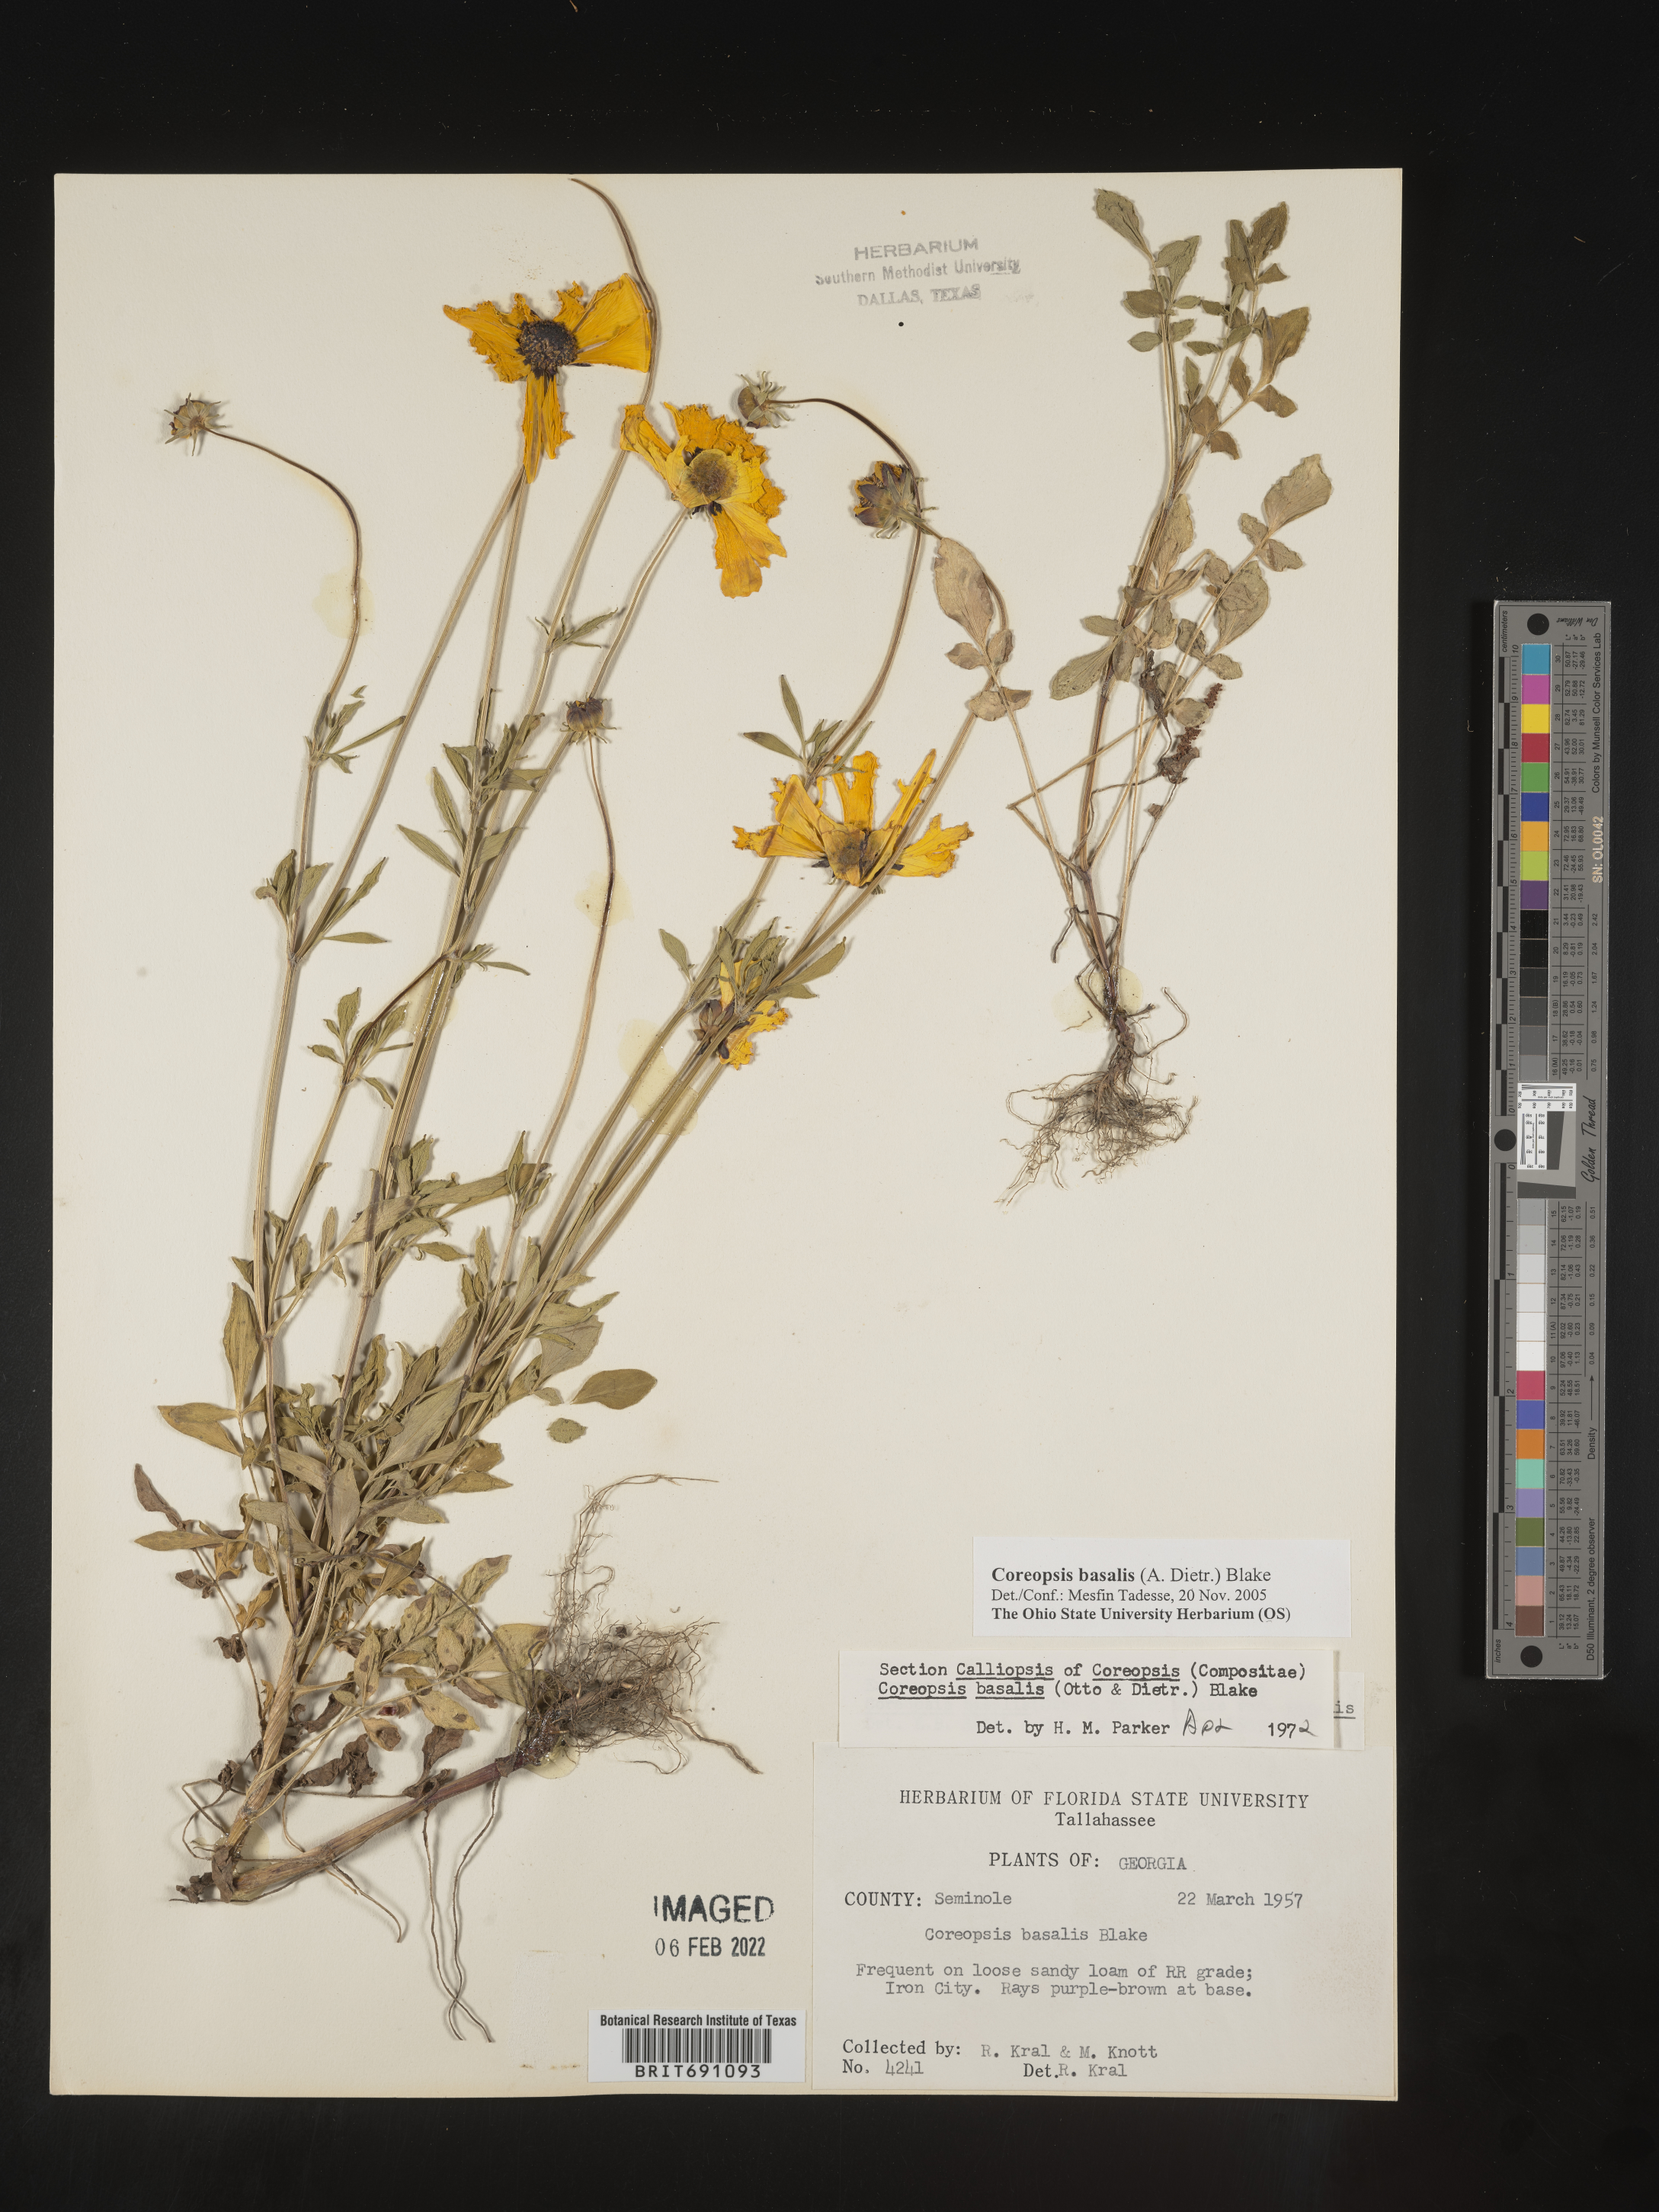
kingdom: Plantae
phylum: Tracheophyta
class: Magnoliopsida
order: Asterales
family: Asteraceae
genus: Coreopsis
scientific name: Coreopsis
